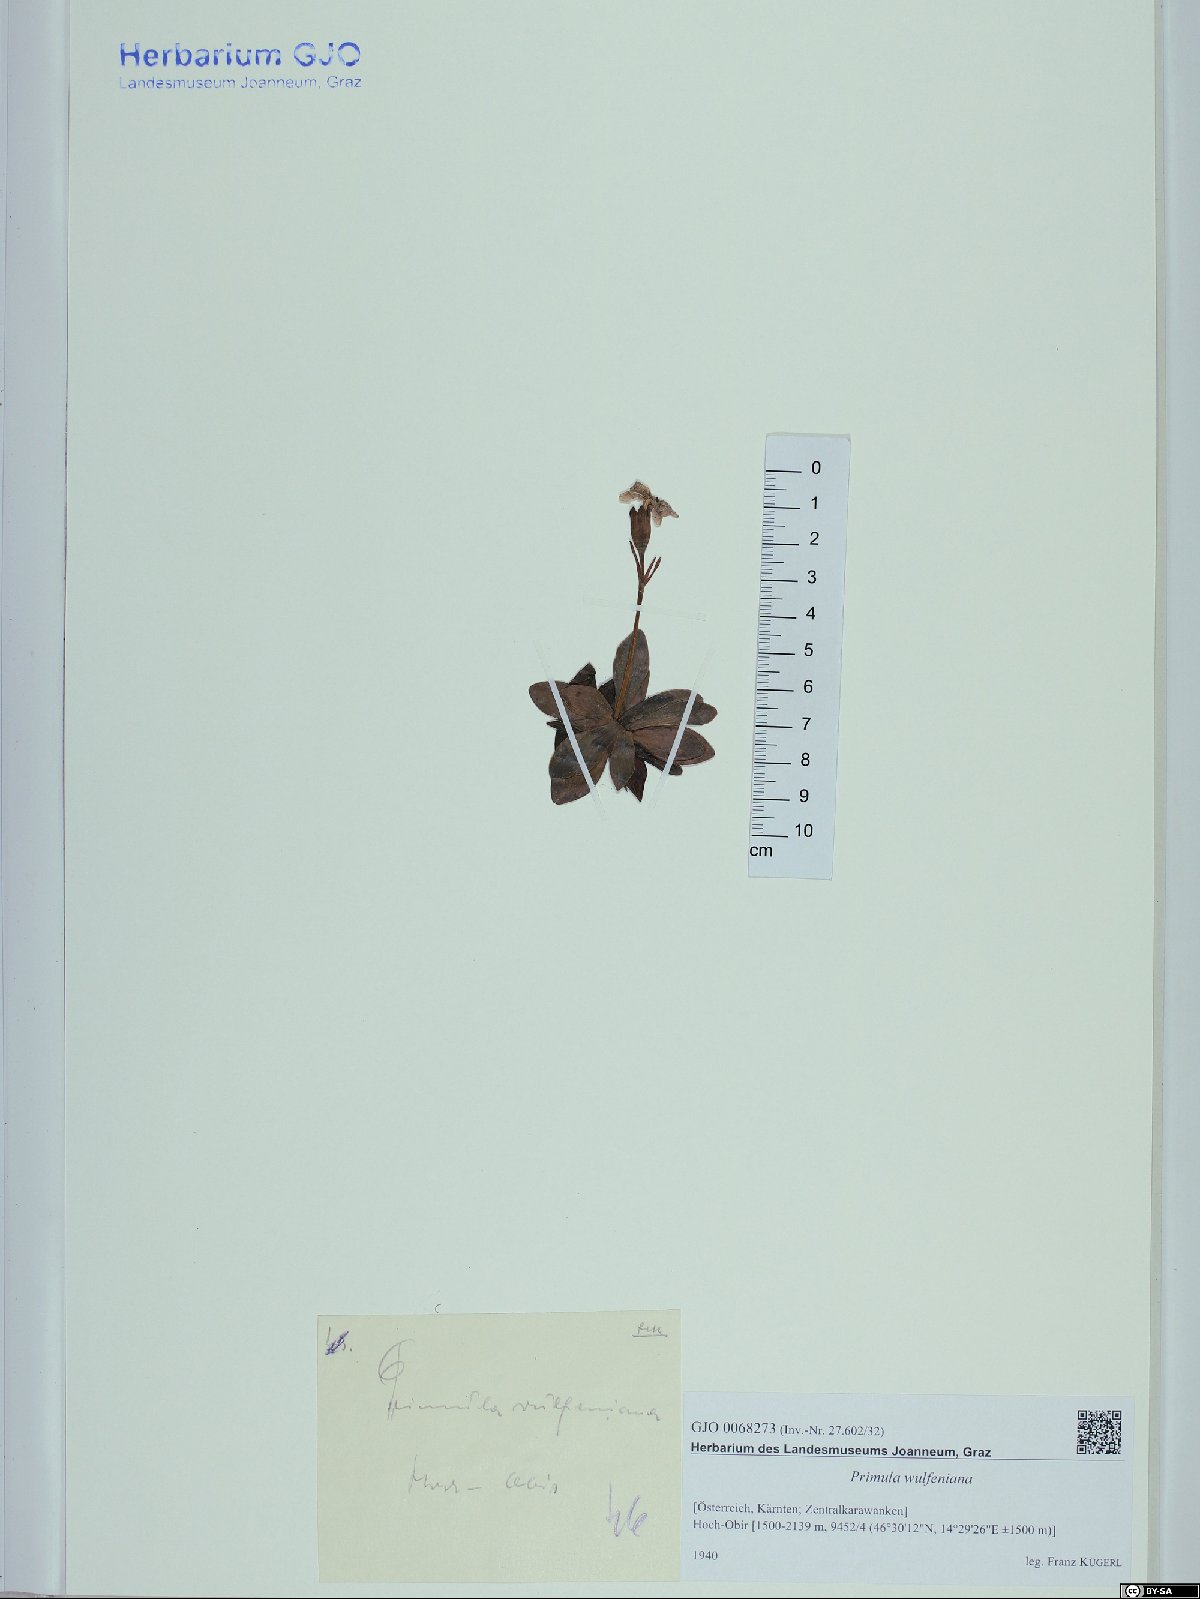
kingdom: Plantae
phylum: Tracheophyta
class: Magnoliopsida
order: Ericales
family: Primulaceae
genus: Primula
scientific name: Primula wulfeniana
